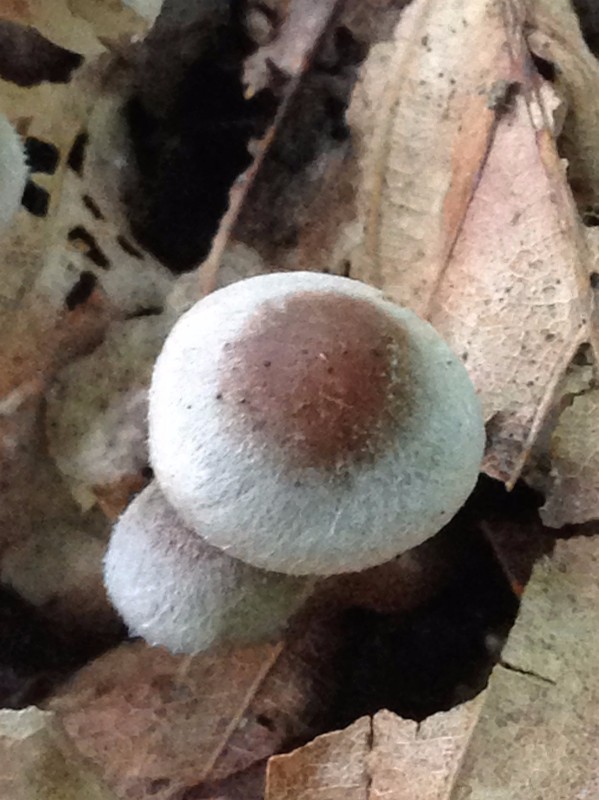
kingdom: Fungi
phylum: Basidiomycota
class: Agaricomycetes
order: Agaricales
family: Inocybaceae
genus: Inocybe
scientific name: Inocybe petiginosa
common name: liden trævlhat
